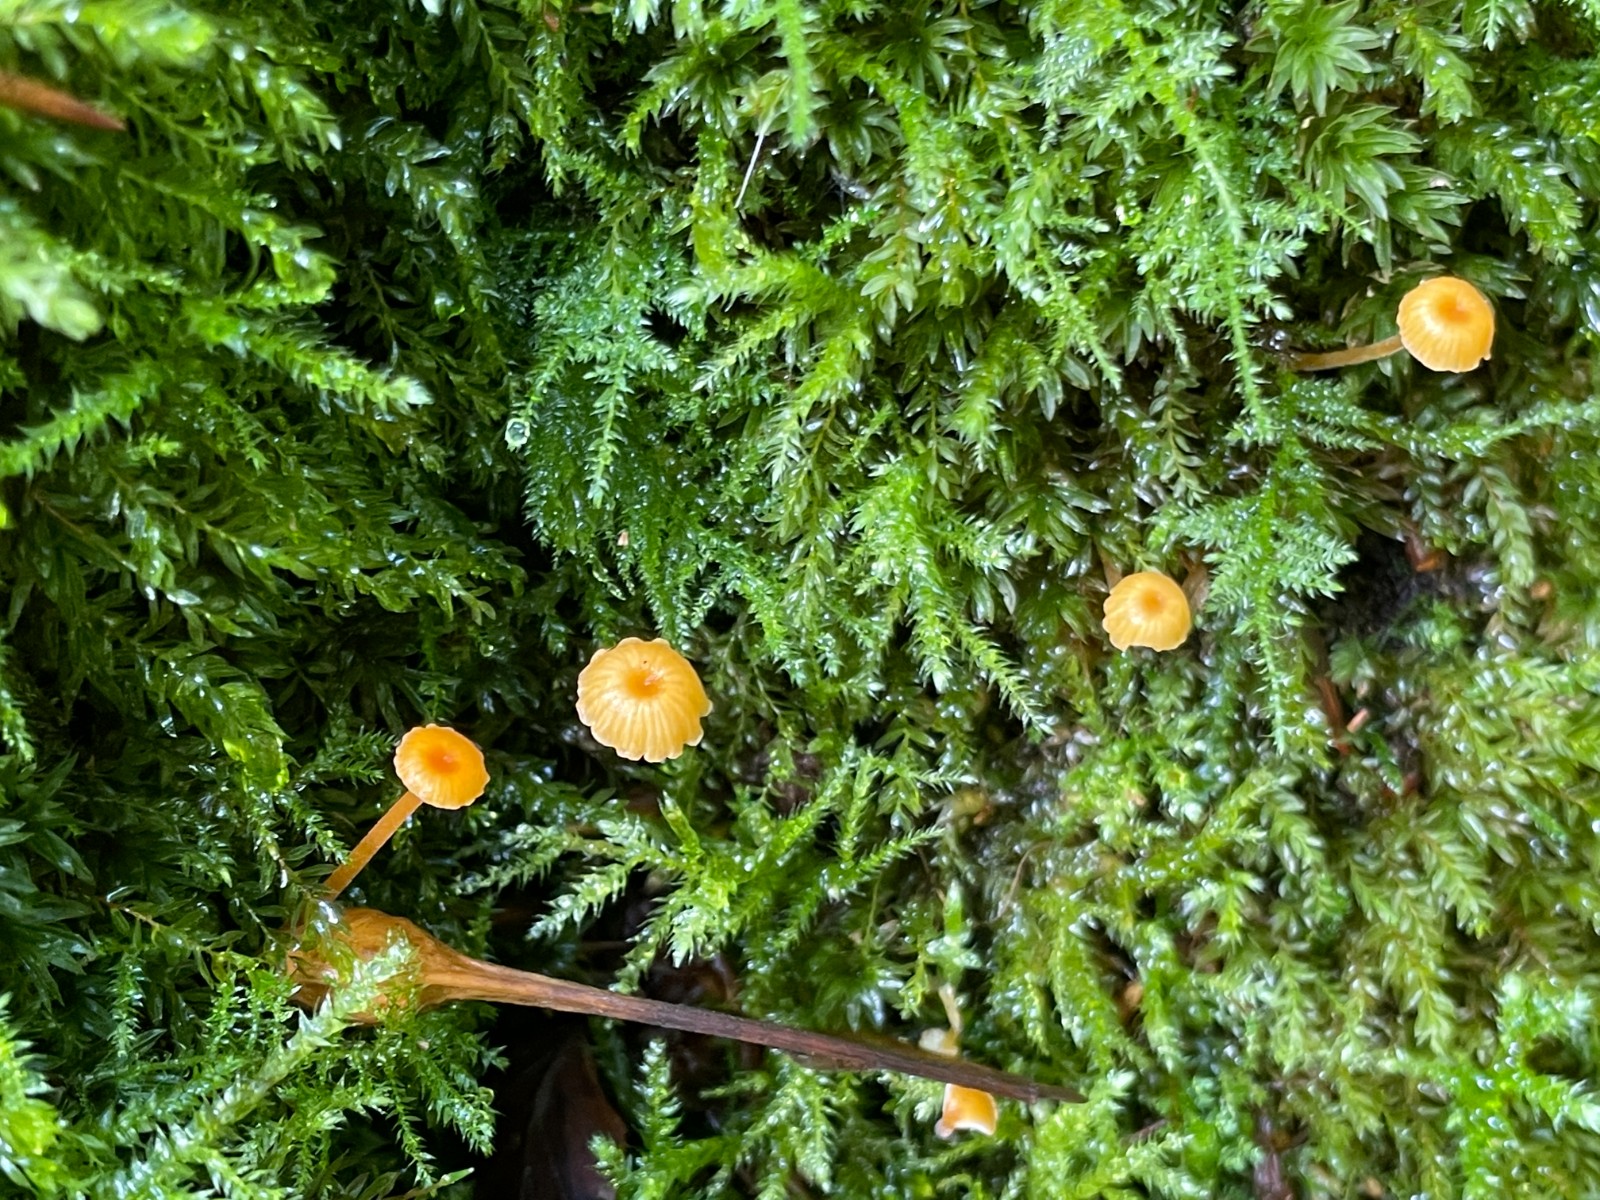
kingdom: Fungi
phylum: Basidiomycota
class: Agaricomycetes
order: Hymenochaetales
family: Rickenellaceae
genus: Rickenella
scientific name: Rickenella fibula
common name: orange mosnavlehat
